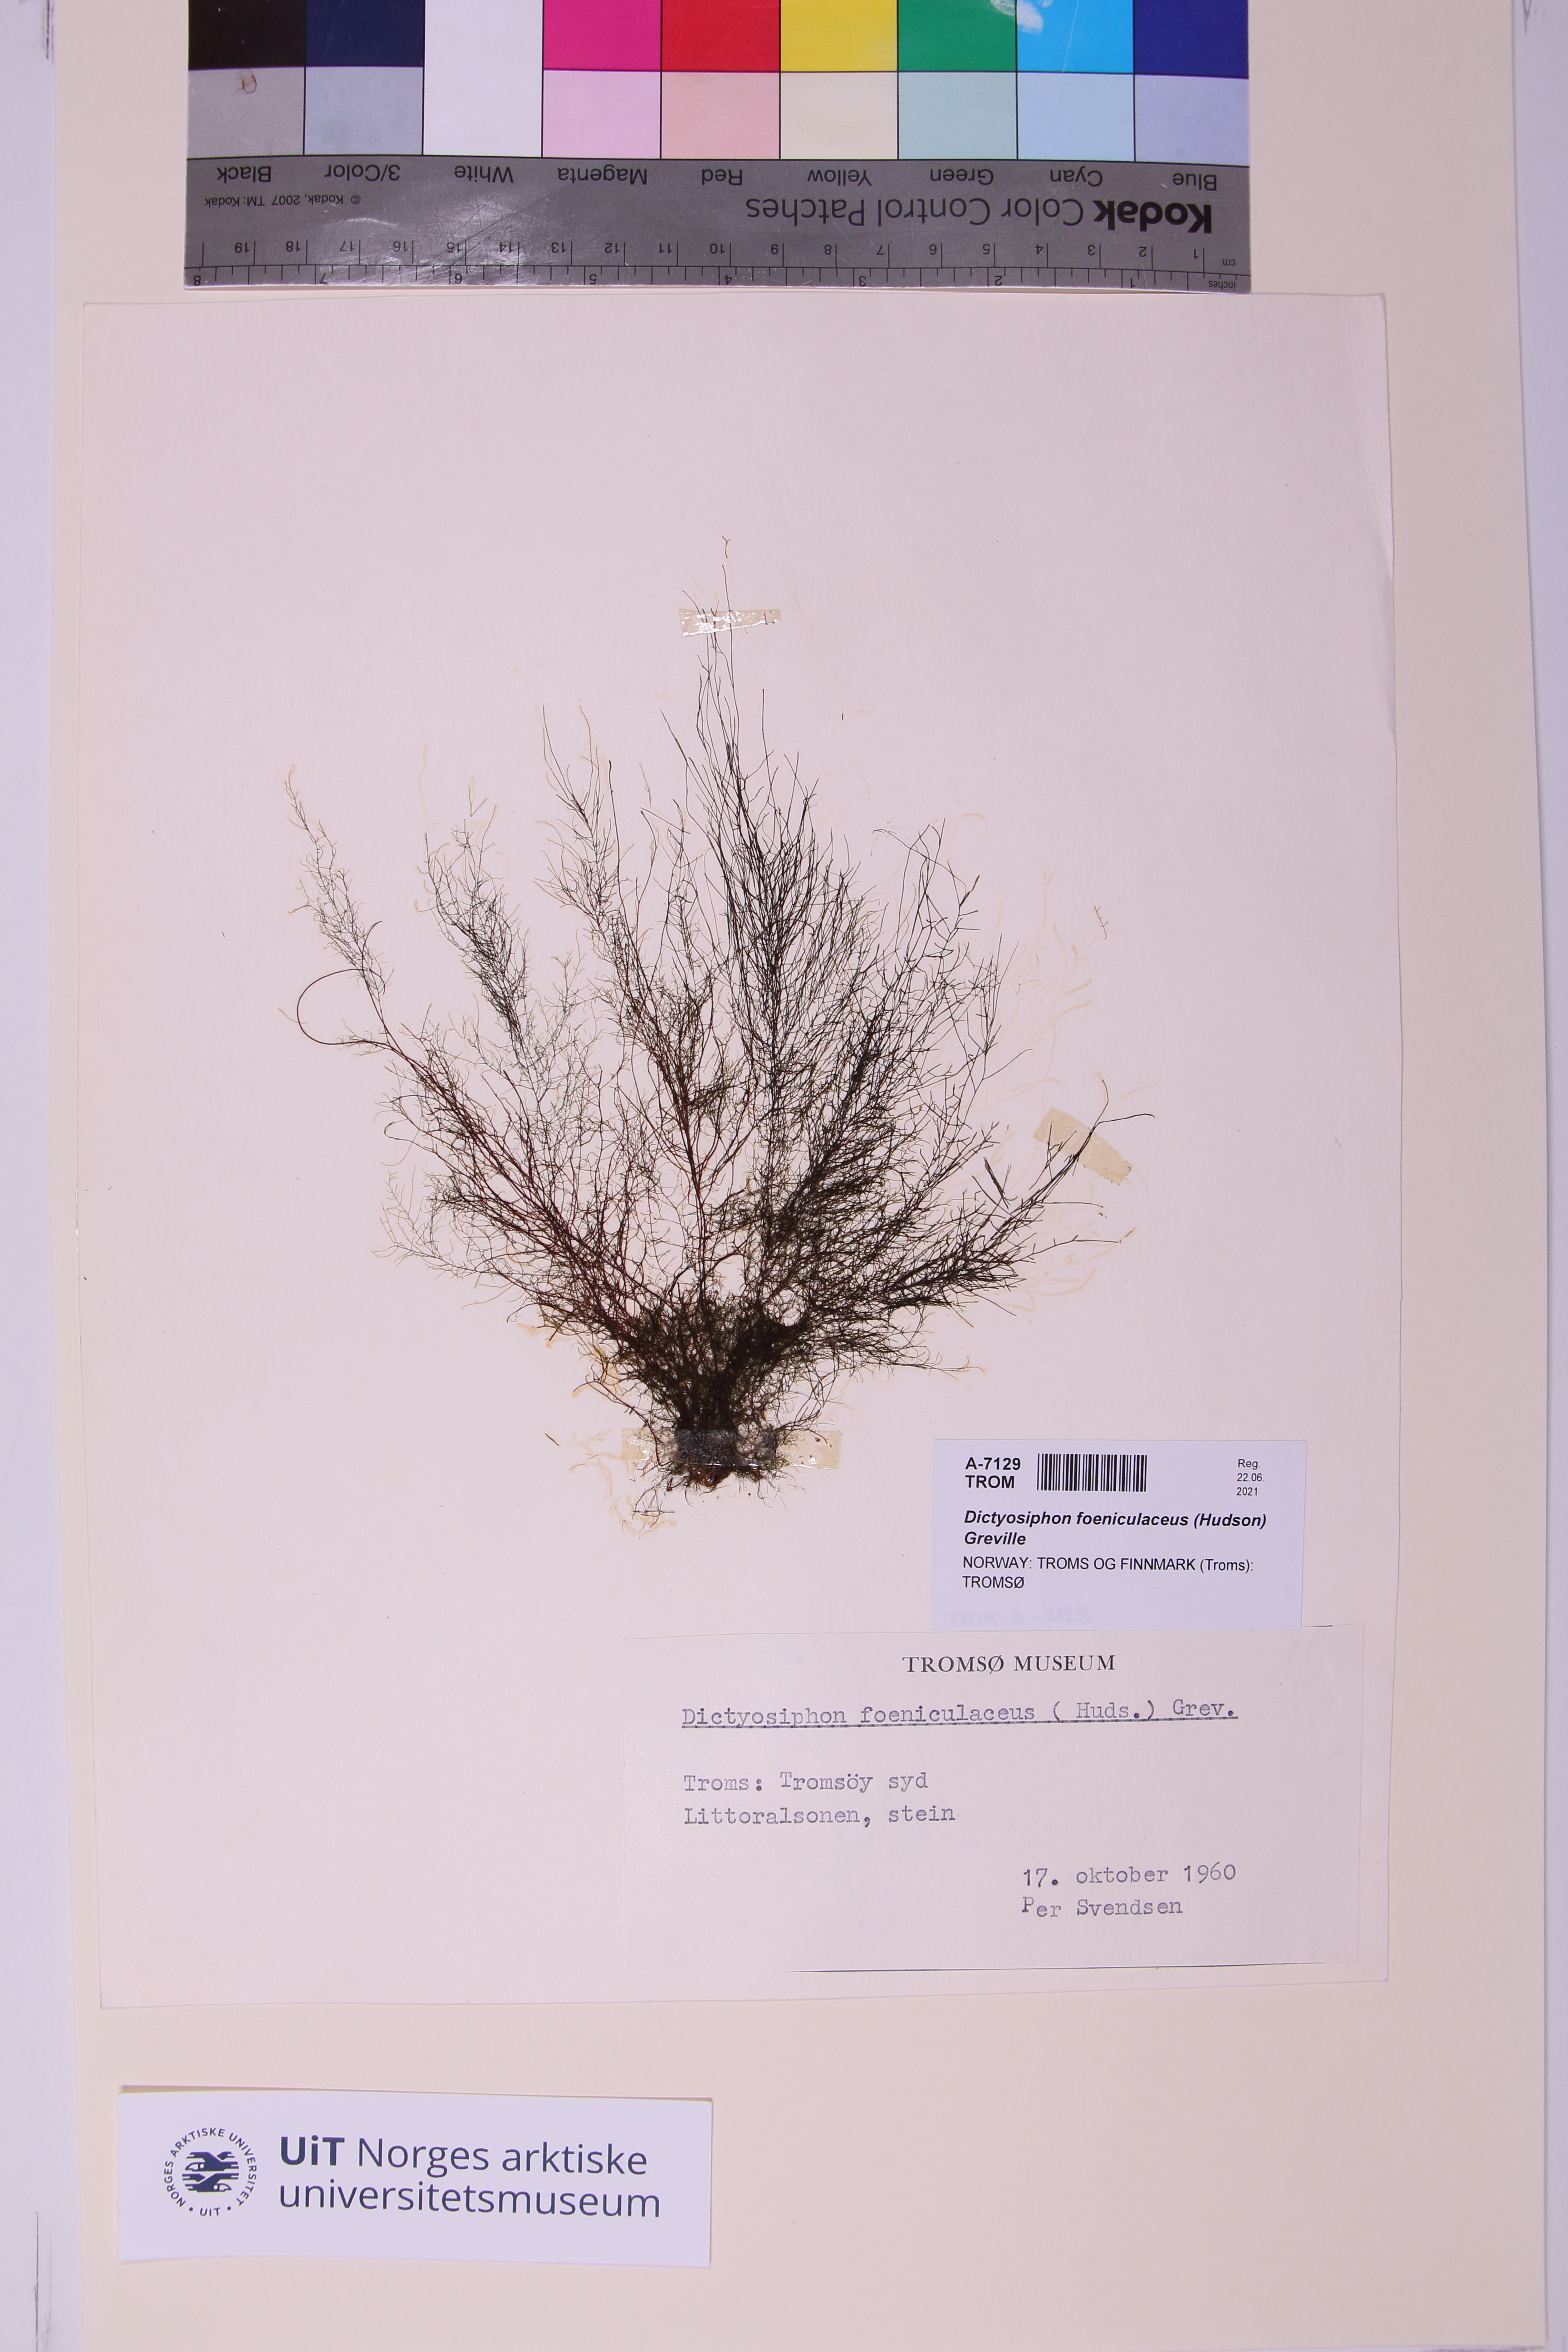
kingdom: Chromista
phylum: Ochrophyta
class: Phaeophyceae
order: Ectocarpales
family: Chordariaceae
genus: Dictyosiphon
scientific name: Dictyosiphon foeniculaceus
